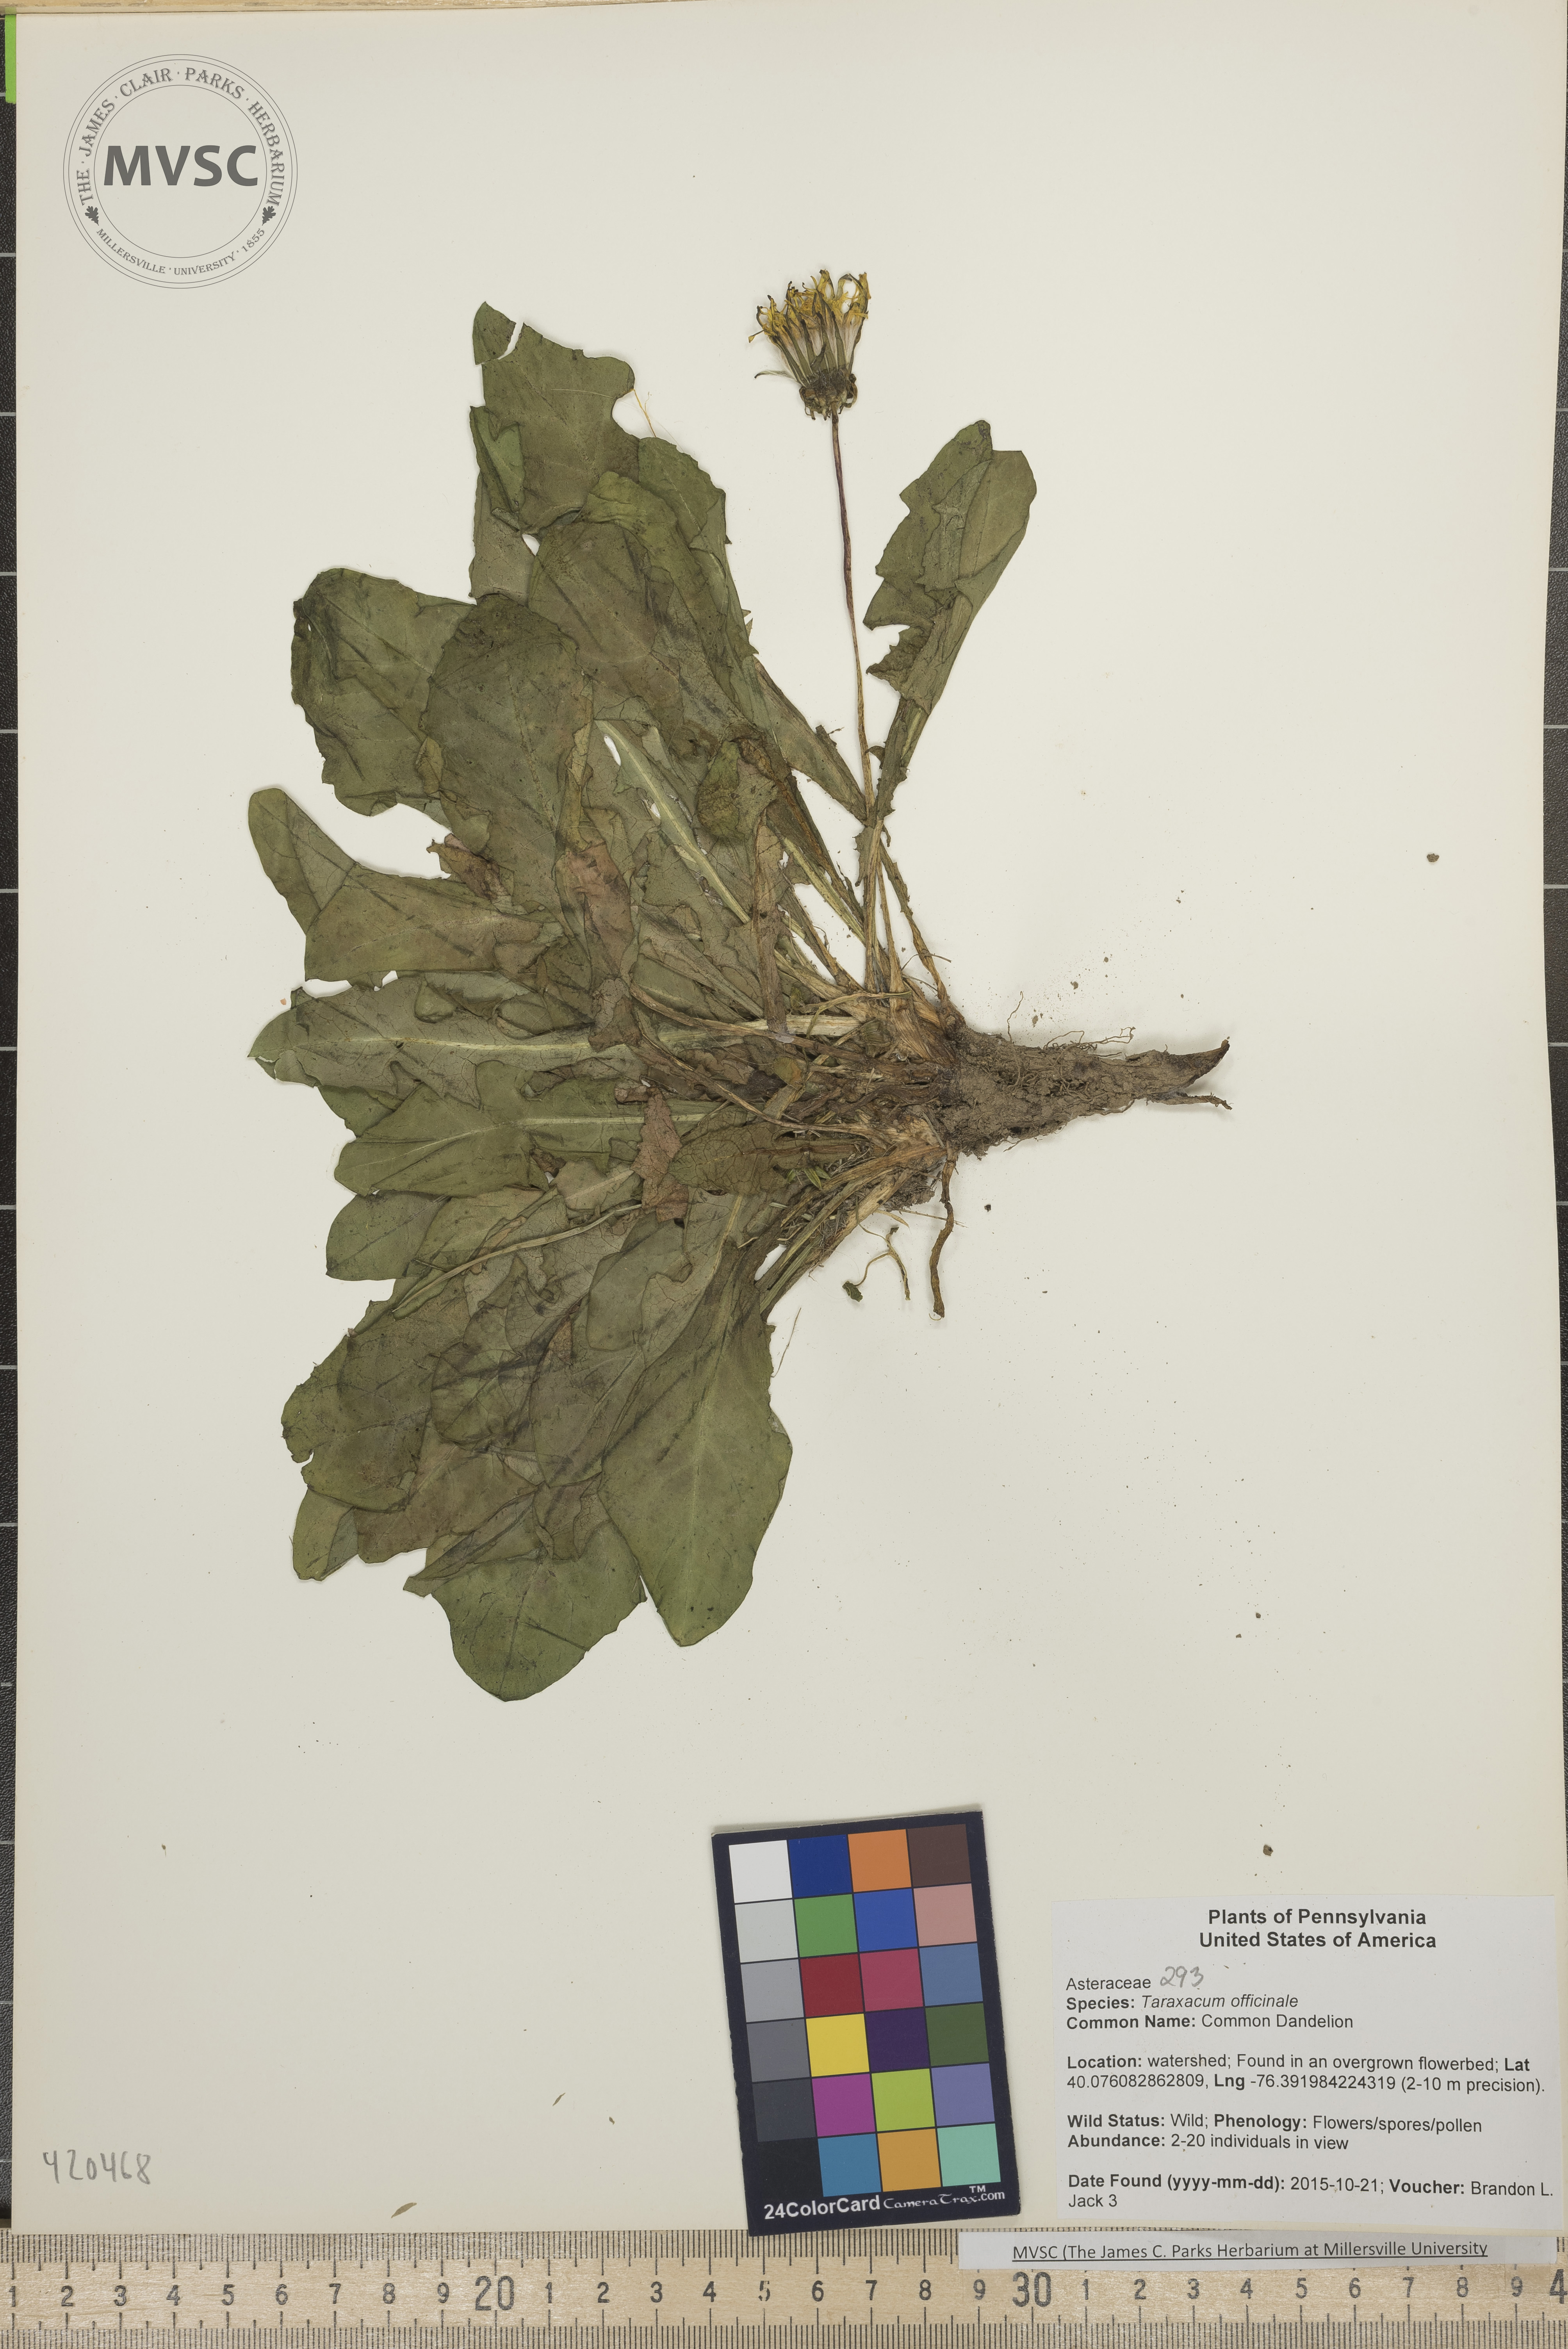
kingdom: Plantae
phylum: Tracheophyta
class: Magnoliopsida
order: Asterales
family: Asteraceae
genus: Taraxacum
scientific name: Taraxacum officinale
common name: Common Dandelion
